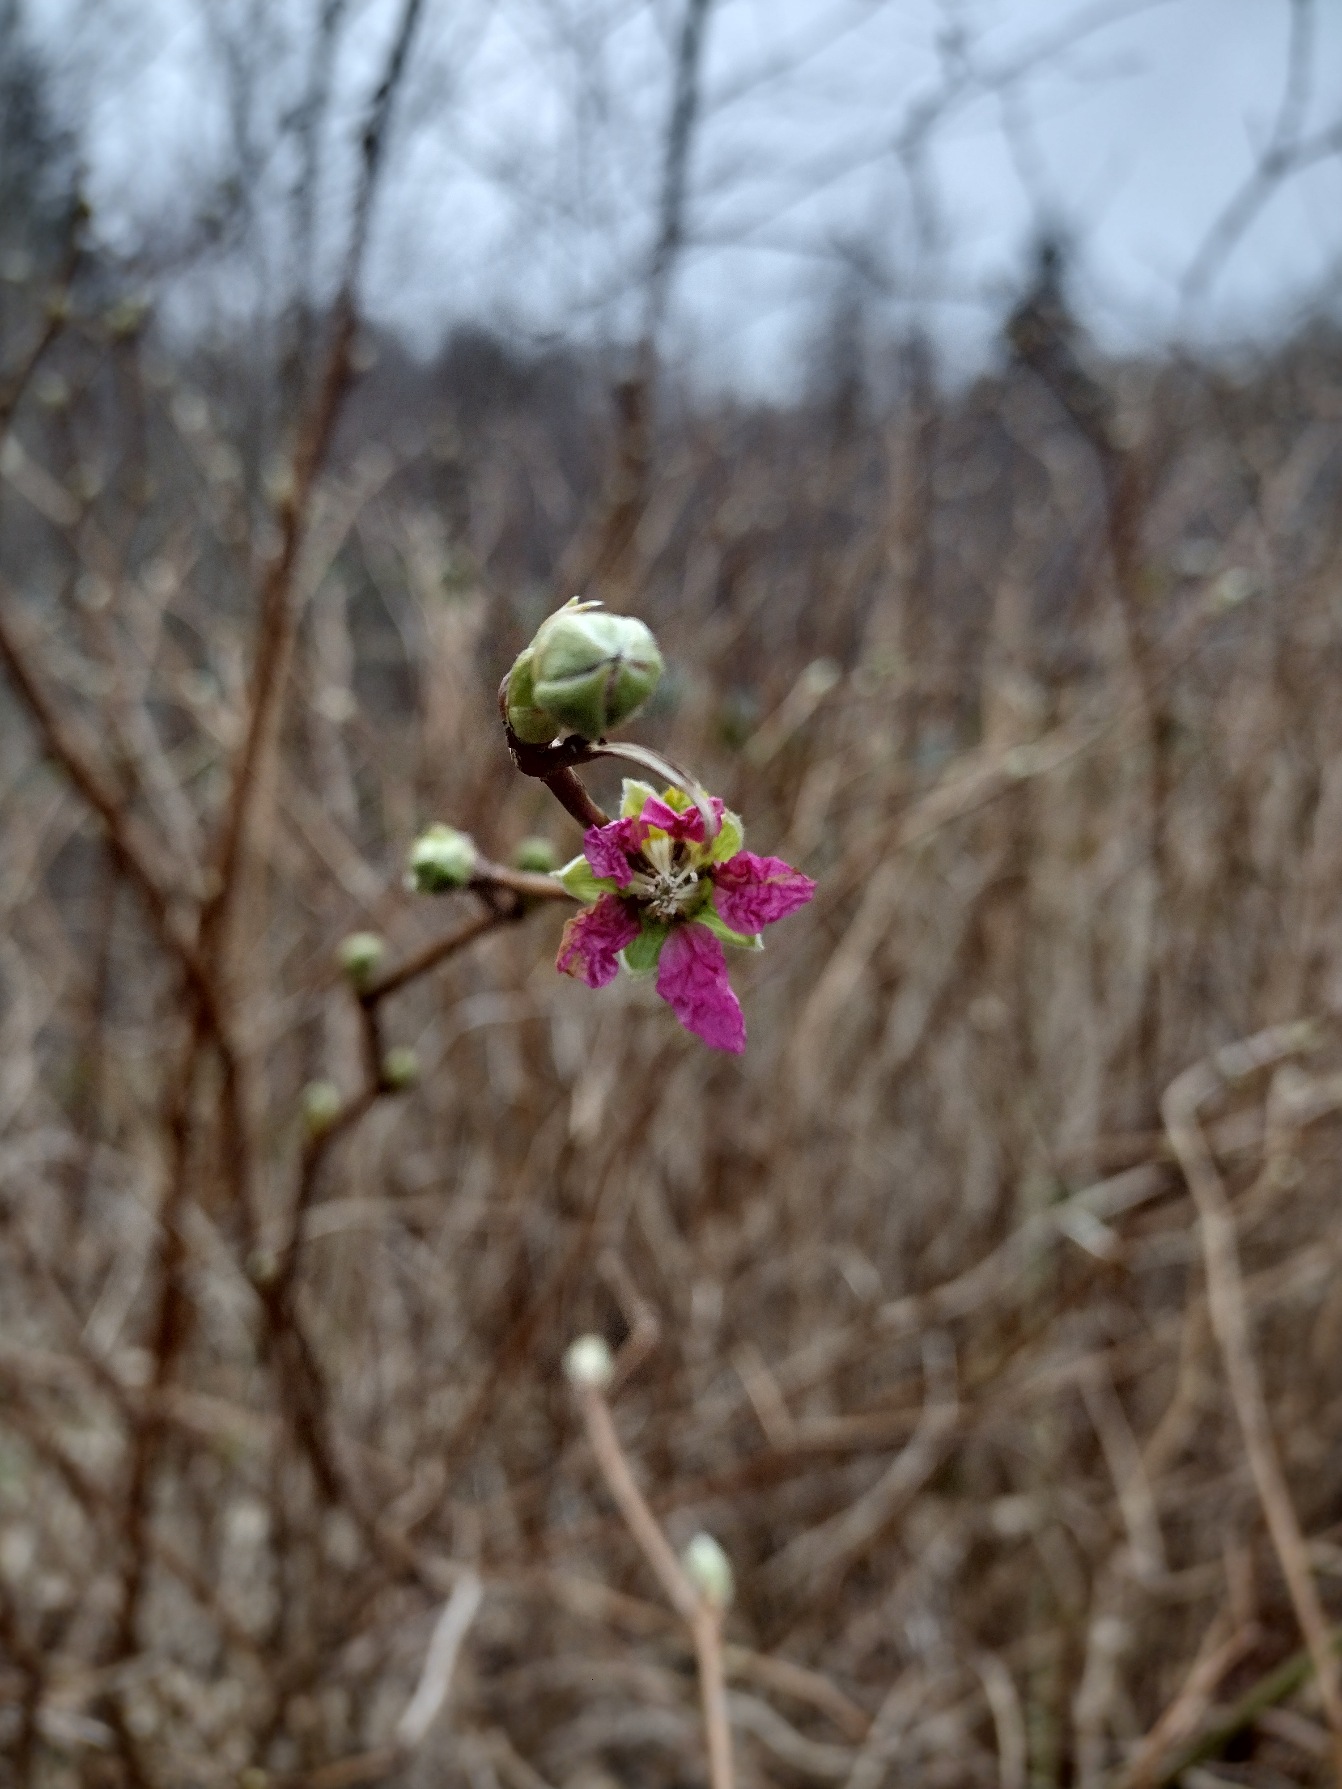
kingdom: Plantae
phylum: Tracheophyta
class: Magnoliopsida
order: Rosales
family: Rosaceae
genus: Rubus
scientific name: Rubus spectabilis
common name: Laksebær
